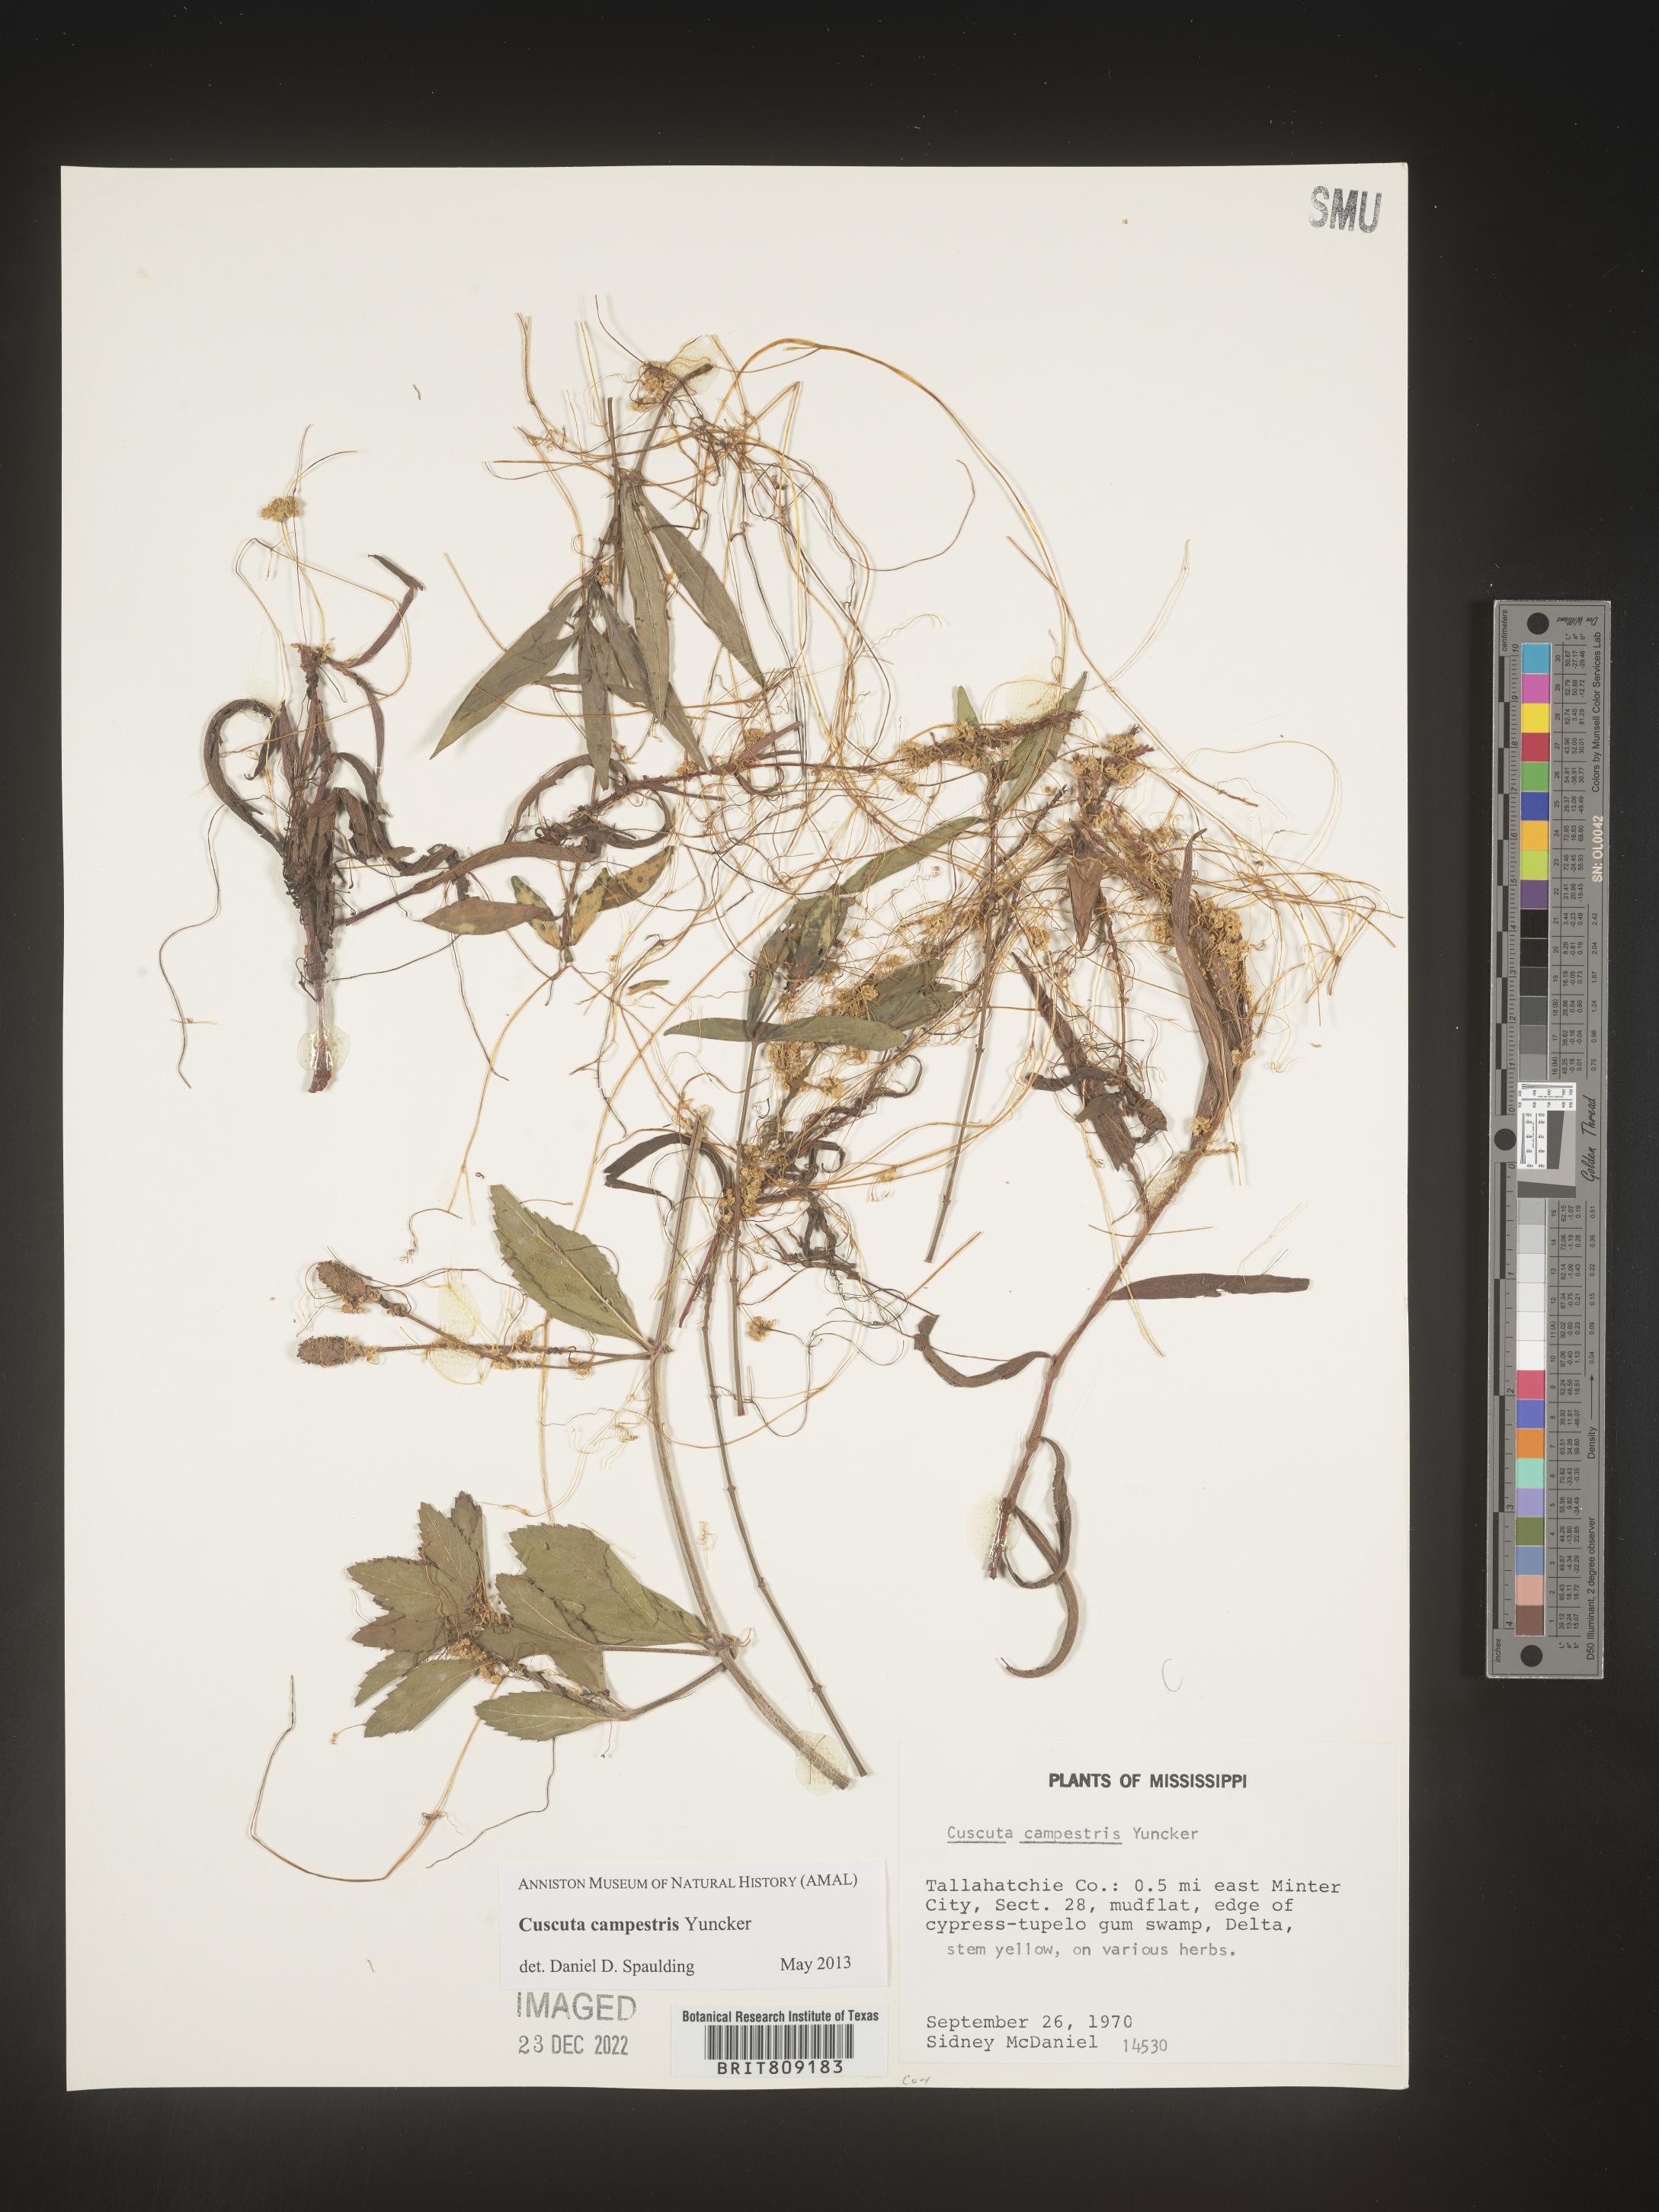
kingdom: Plantae
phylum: Tracheophyta
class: Magnoliopsida
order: Solanales
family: Convolvulaceae
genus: Cuscuta
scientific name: Cuscuta campestris
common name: Yellow dodder
